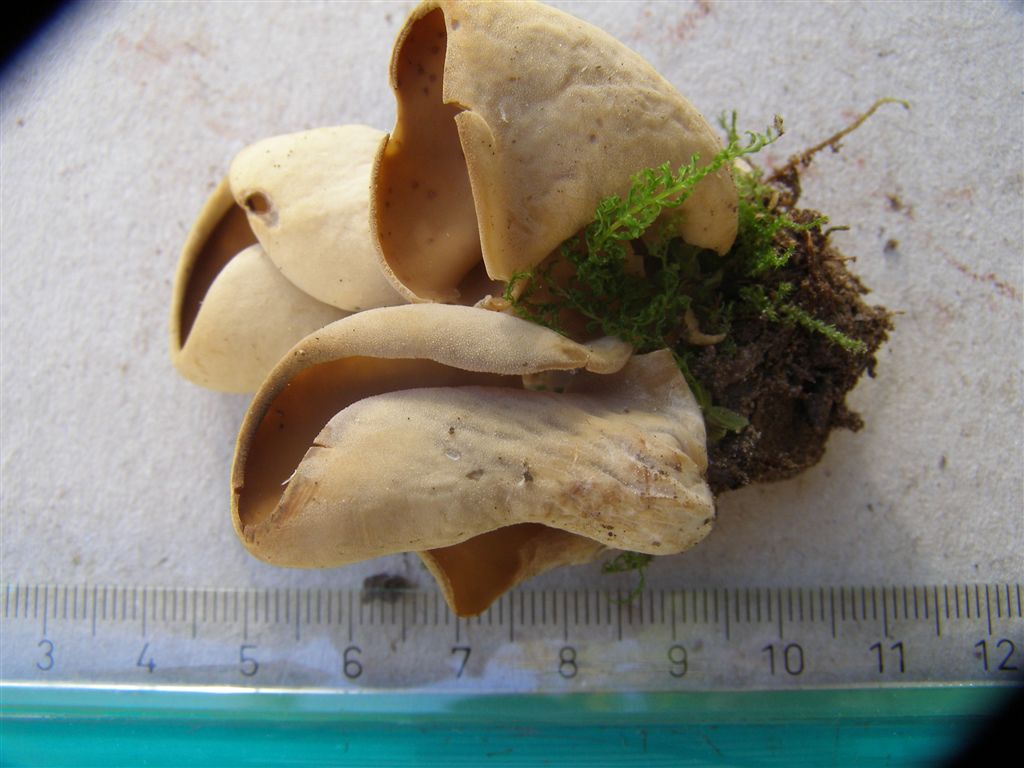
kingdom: Fungi
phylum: Ascomycota
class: Pezizomycetes
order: Pezizales
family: Otideaceae
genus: Otidea
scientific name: Otidea alutacea
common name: læder-ørebæger
